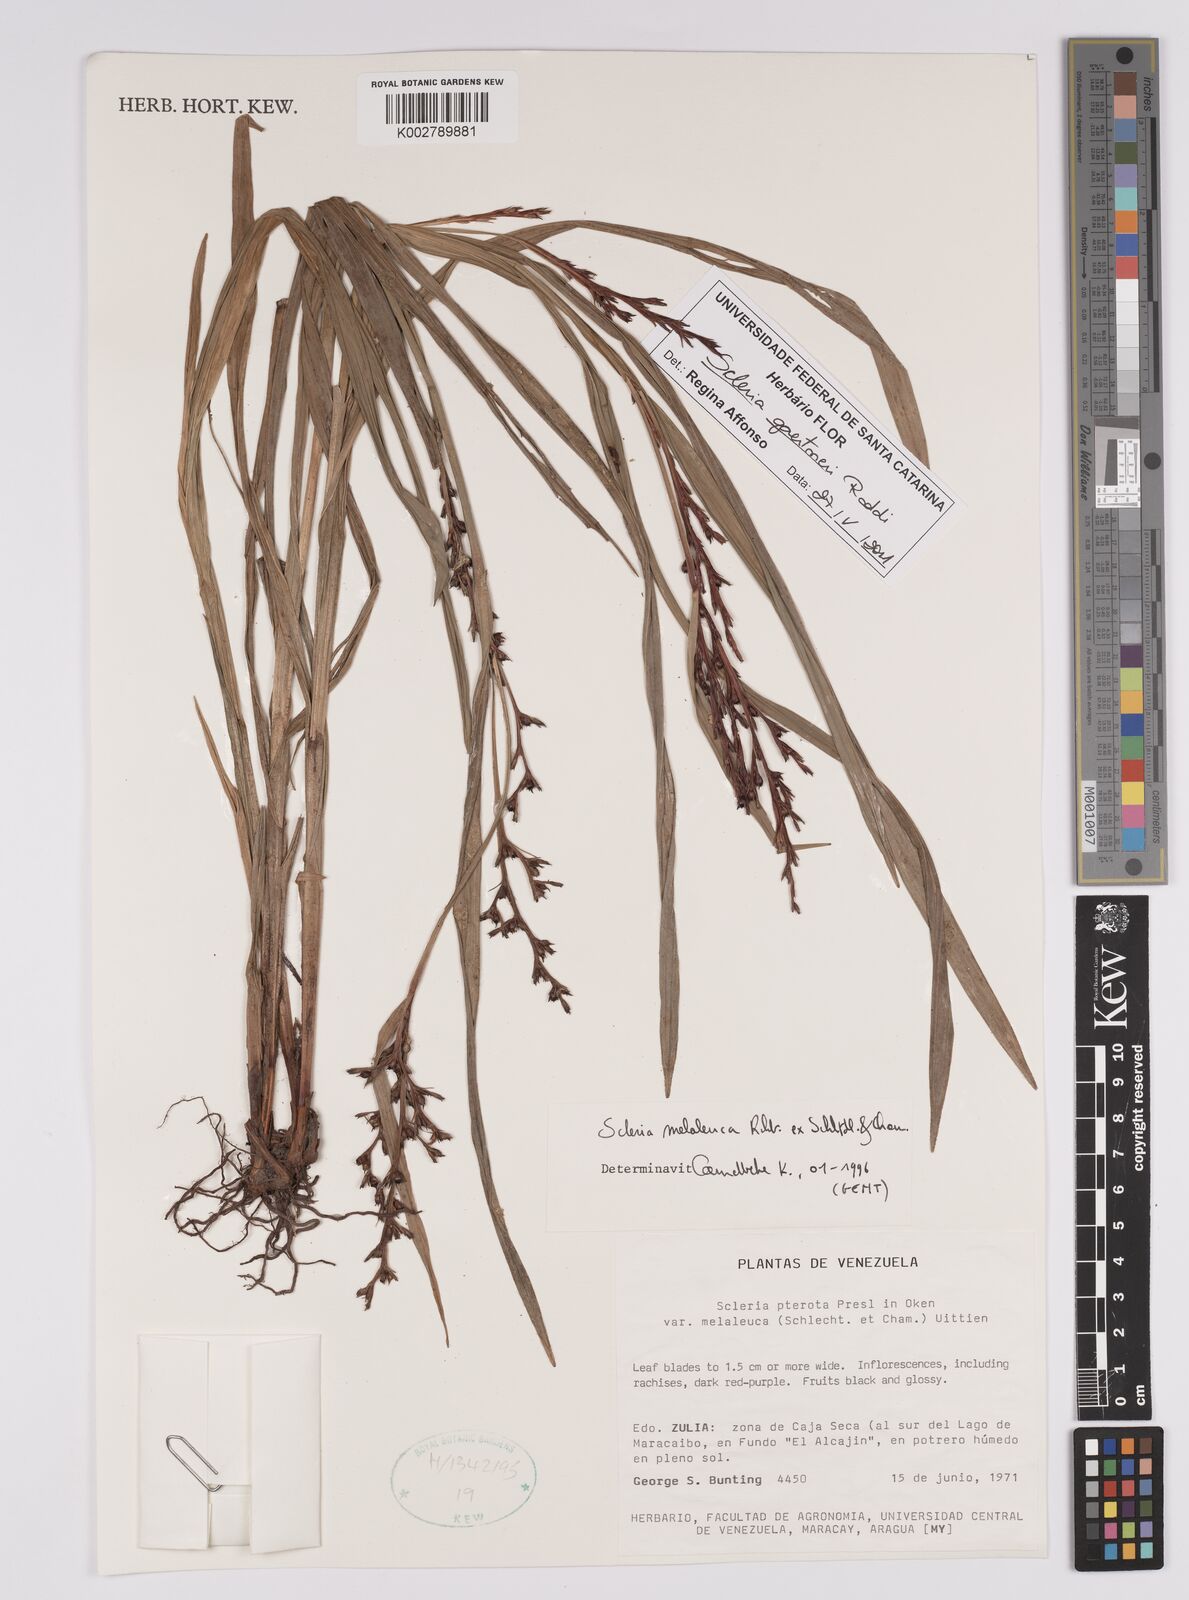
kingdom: Plantae
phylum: Tracheophyta
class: Liliopsida
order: Poales
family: Cyperaceae
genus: Scleria
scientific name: Scleria gaertneri
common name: Cortadera blanca
